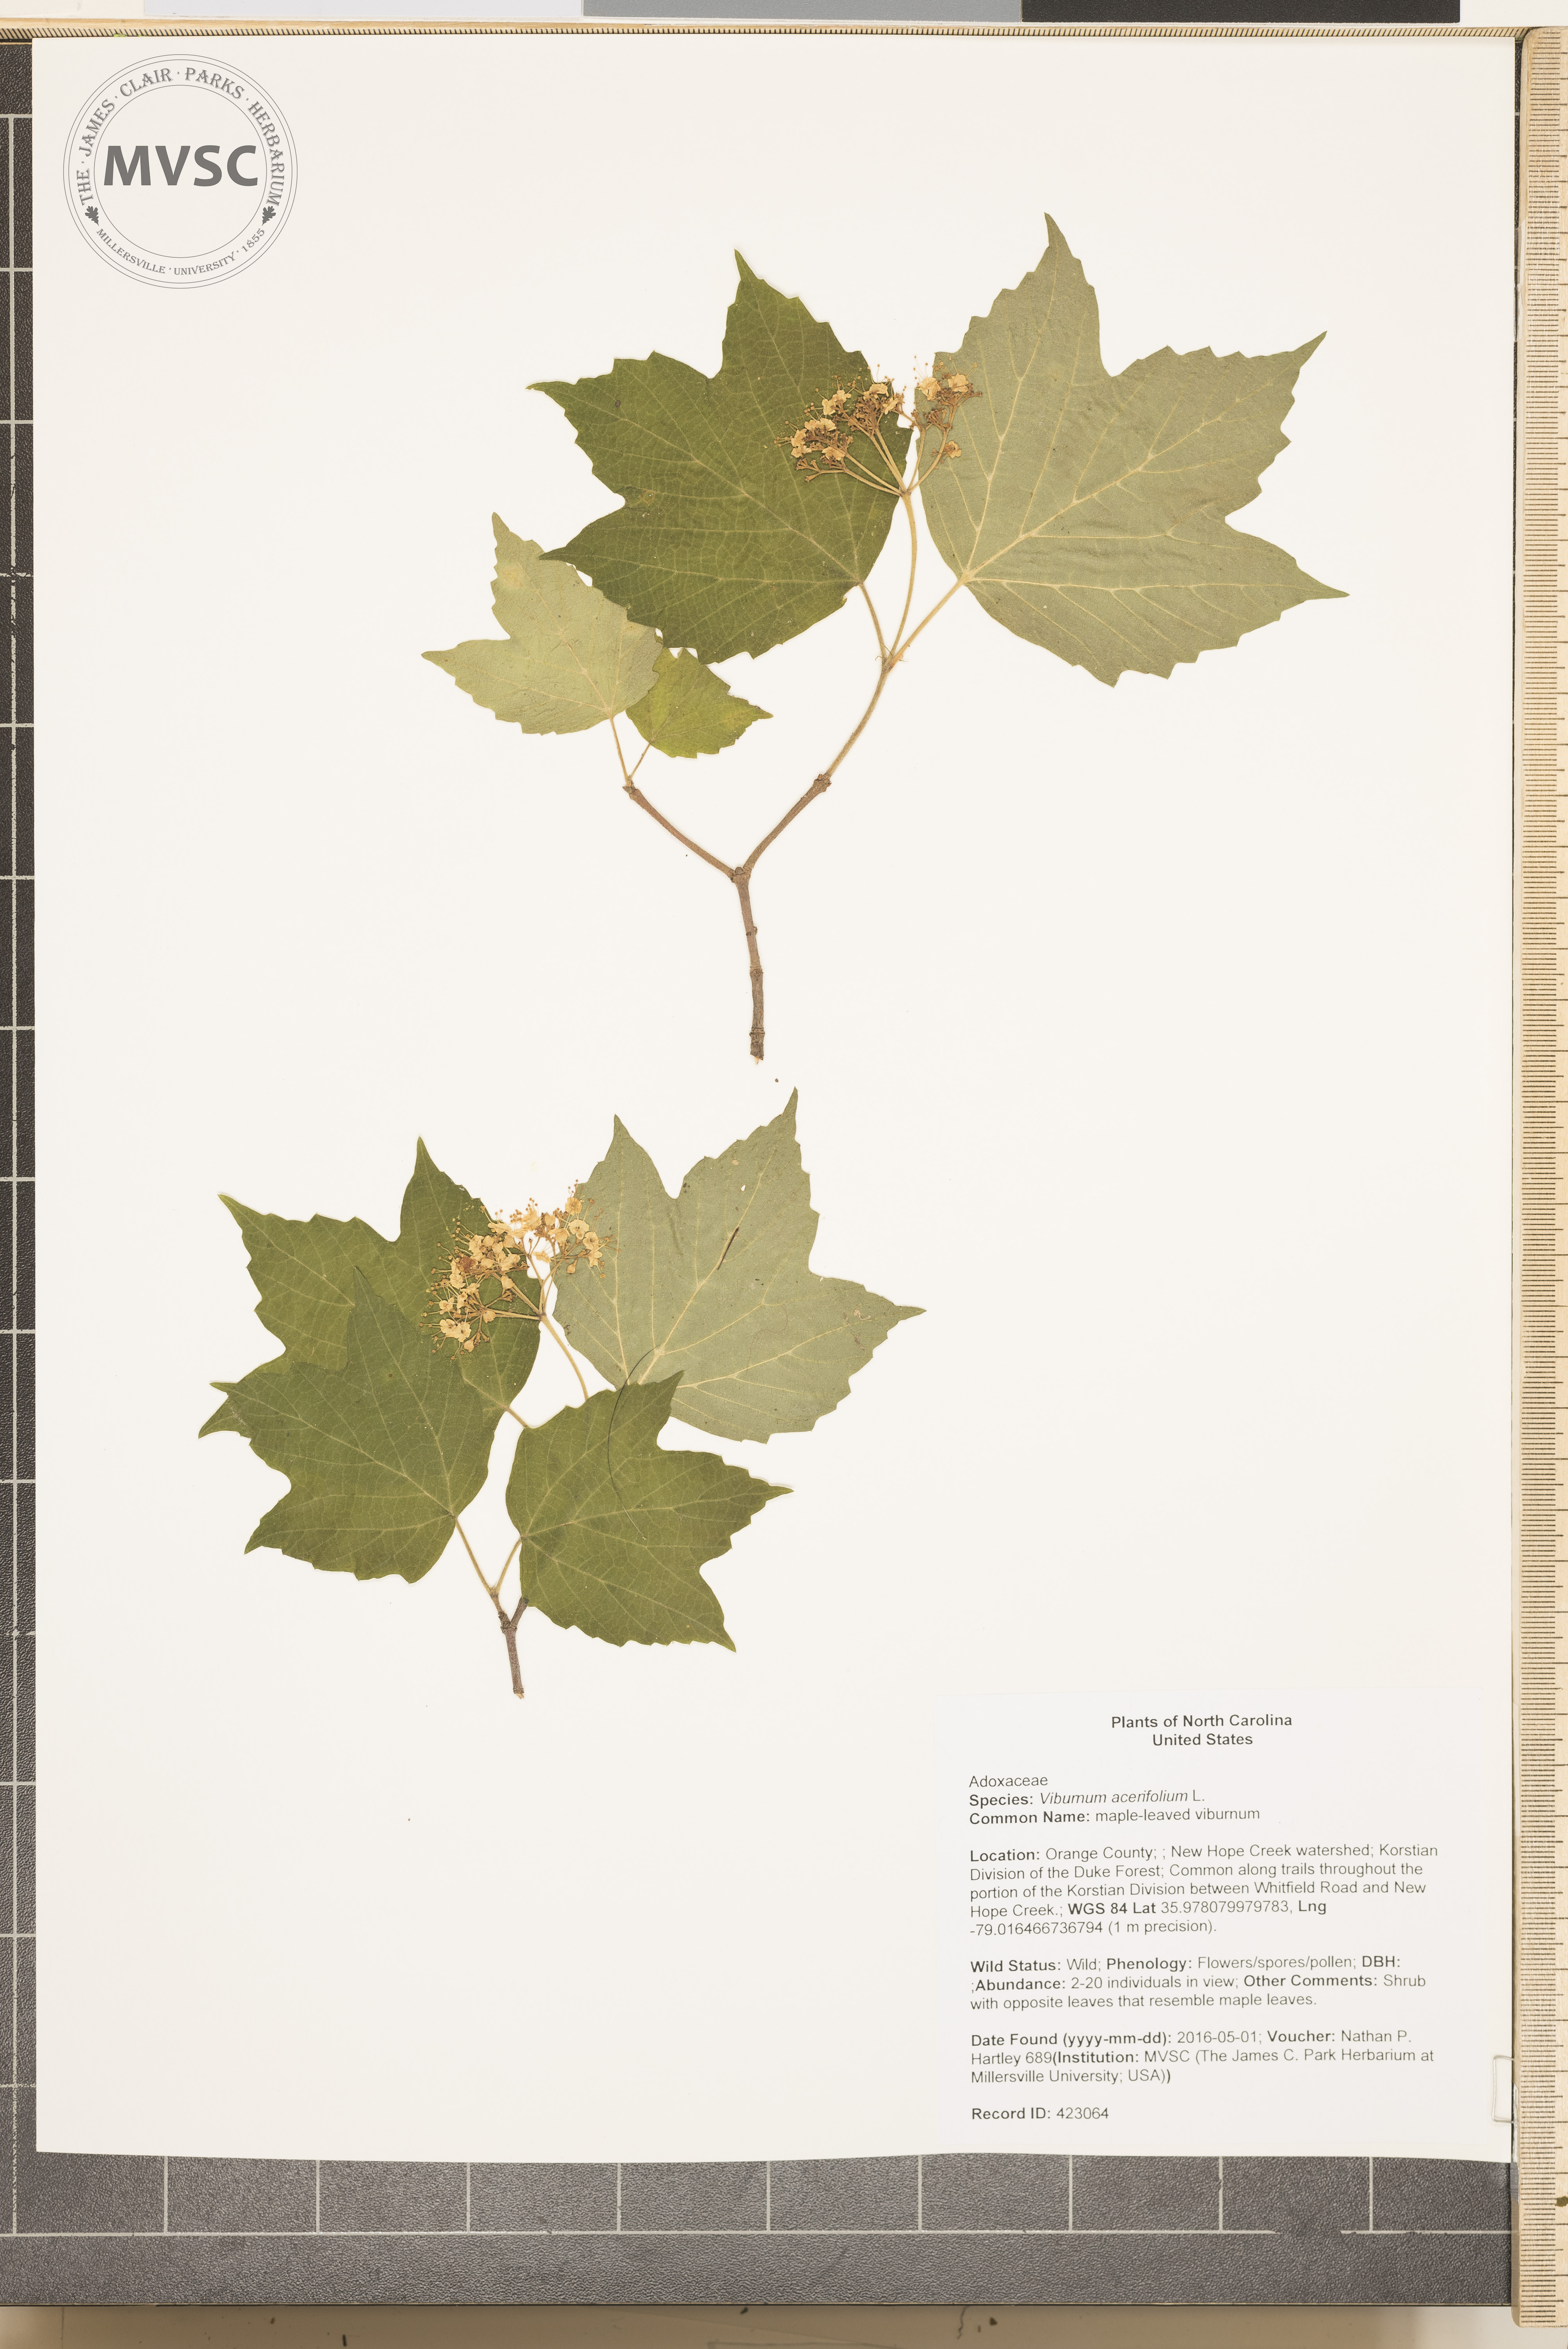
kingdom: Plantae
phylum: Tracheophyta
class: Magnoliopsida
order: Dipsacales
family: Viburnaceae
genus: Viburnum
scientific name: Viburnum acerifolium
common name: maple-leaved viburnum
